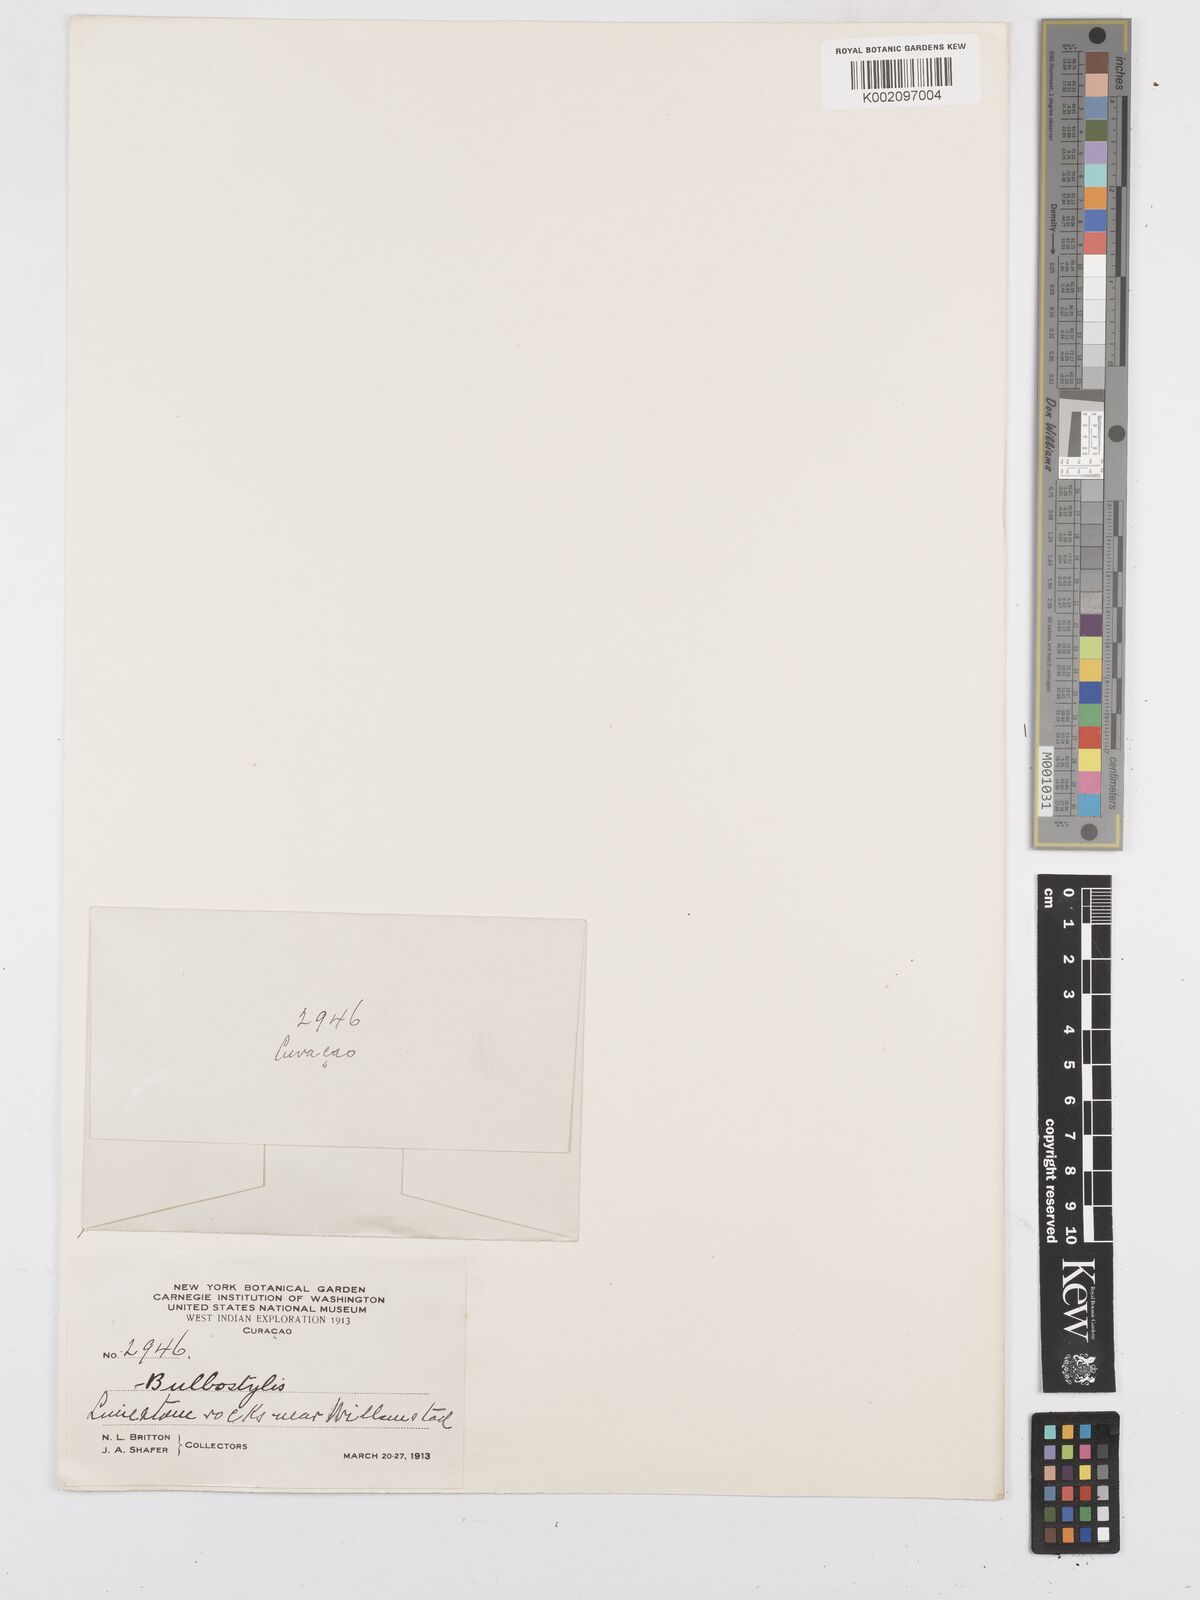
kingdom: Plantae
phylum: Tracheophyta
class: Liliopsida
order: Poales
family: Cyperaceae
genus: Bulbostylis
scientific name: Bulbostylis curassavica
